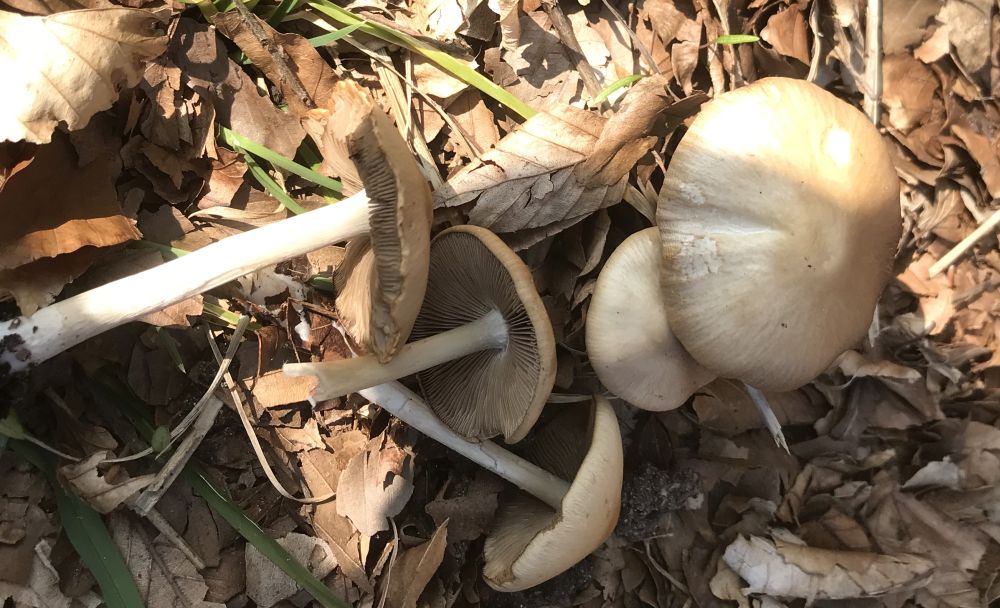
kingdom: Fungi
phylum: Basidiomycota
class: Agaricomycetes
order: Agaricales
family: Psathyrellaceae
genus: Psathyrella
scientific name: Psathyrella spadiceogrisea
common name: gråbrun mørkhat
